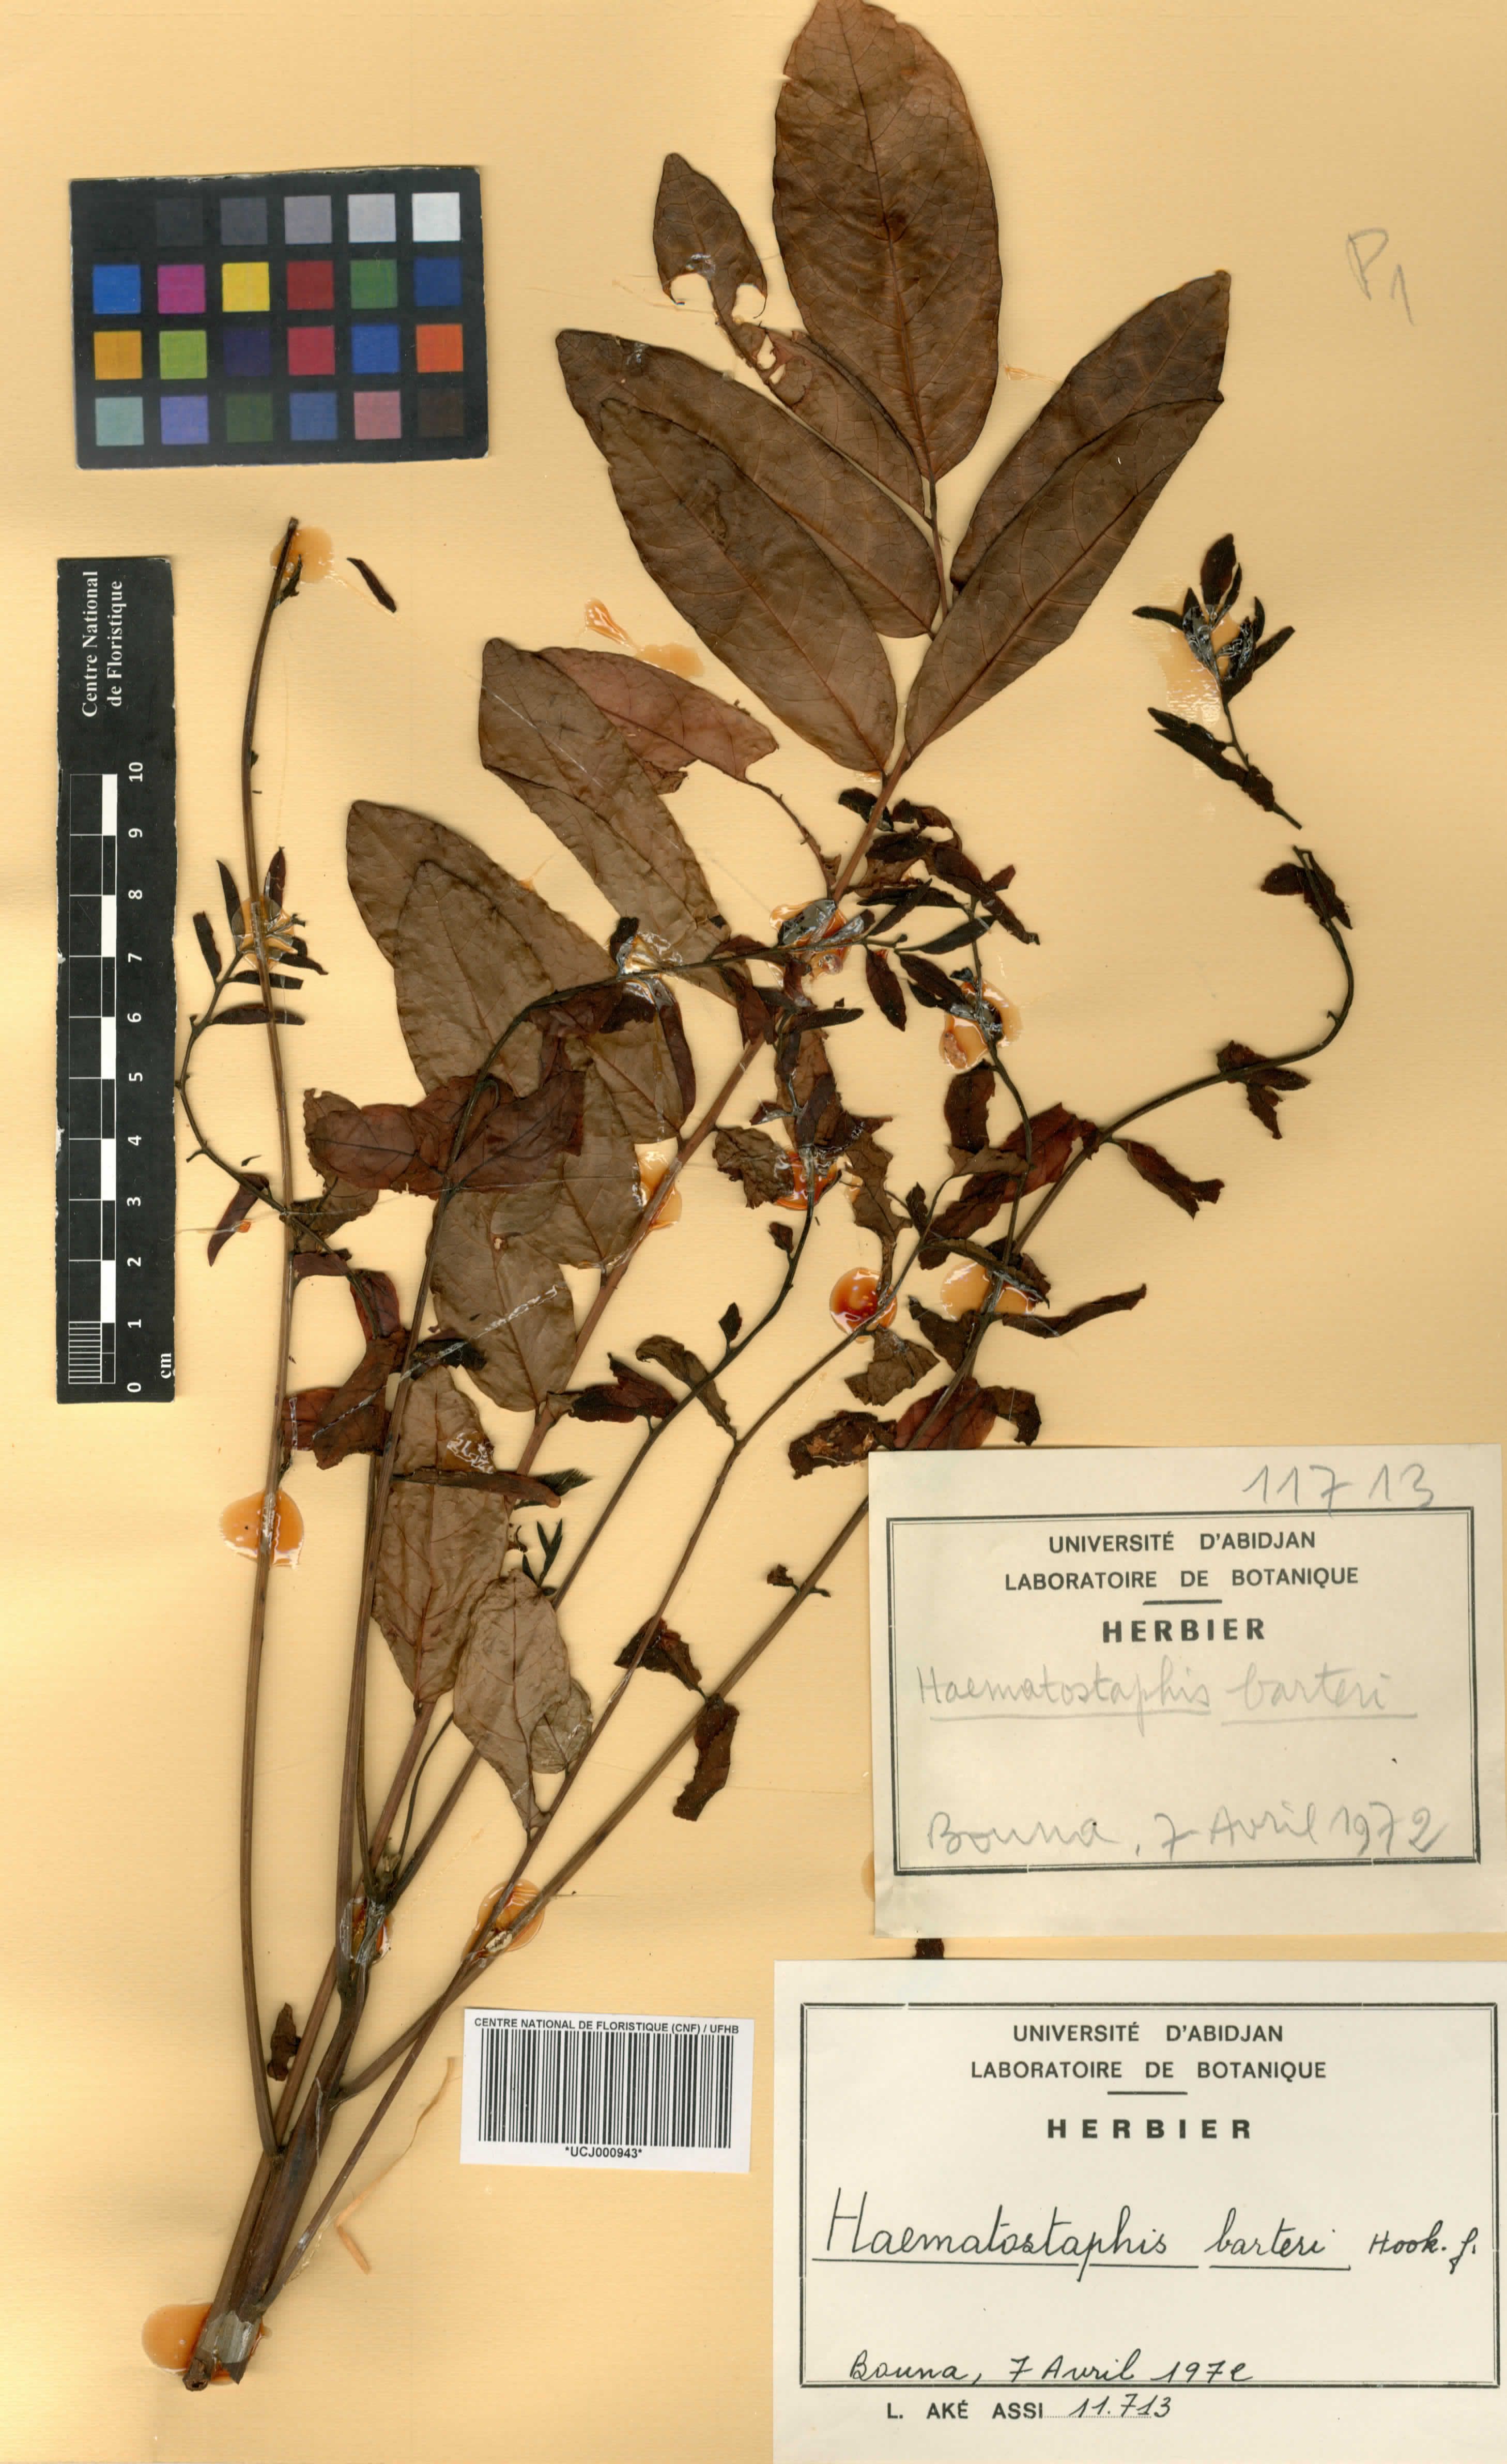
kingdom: Plantae
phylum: Tracheophyta
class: Magnoliopsida
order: Sapindales
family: Anacardiaceae
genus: Haematostaphis
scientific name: Haematostaphis barteri
